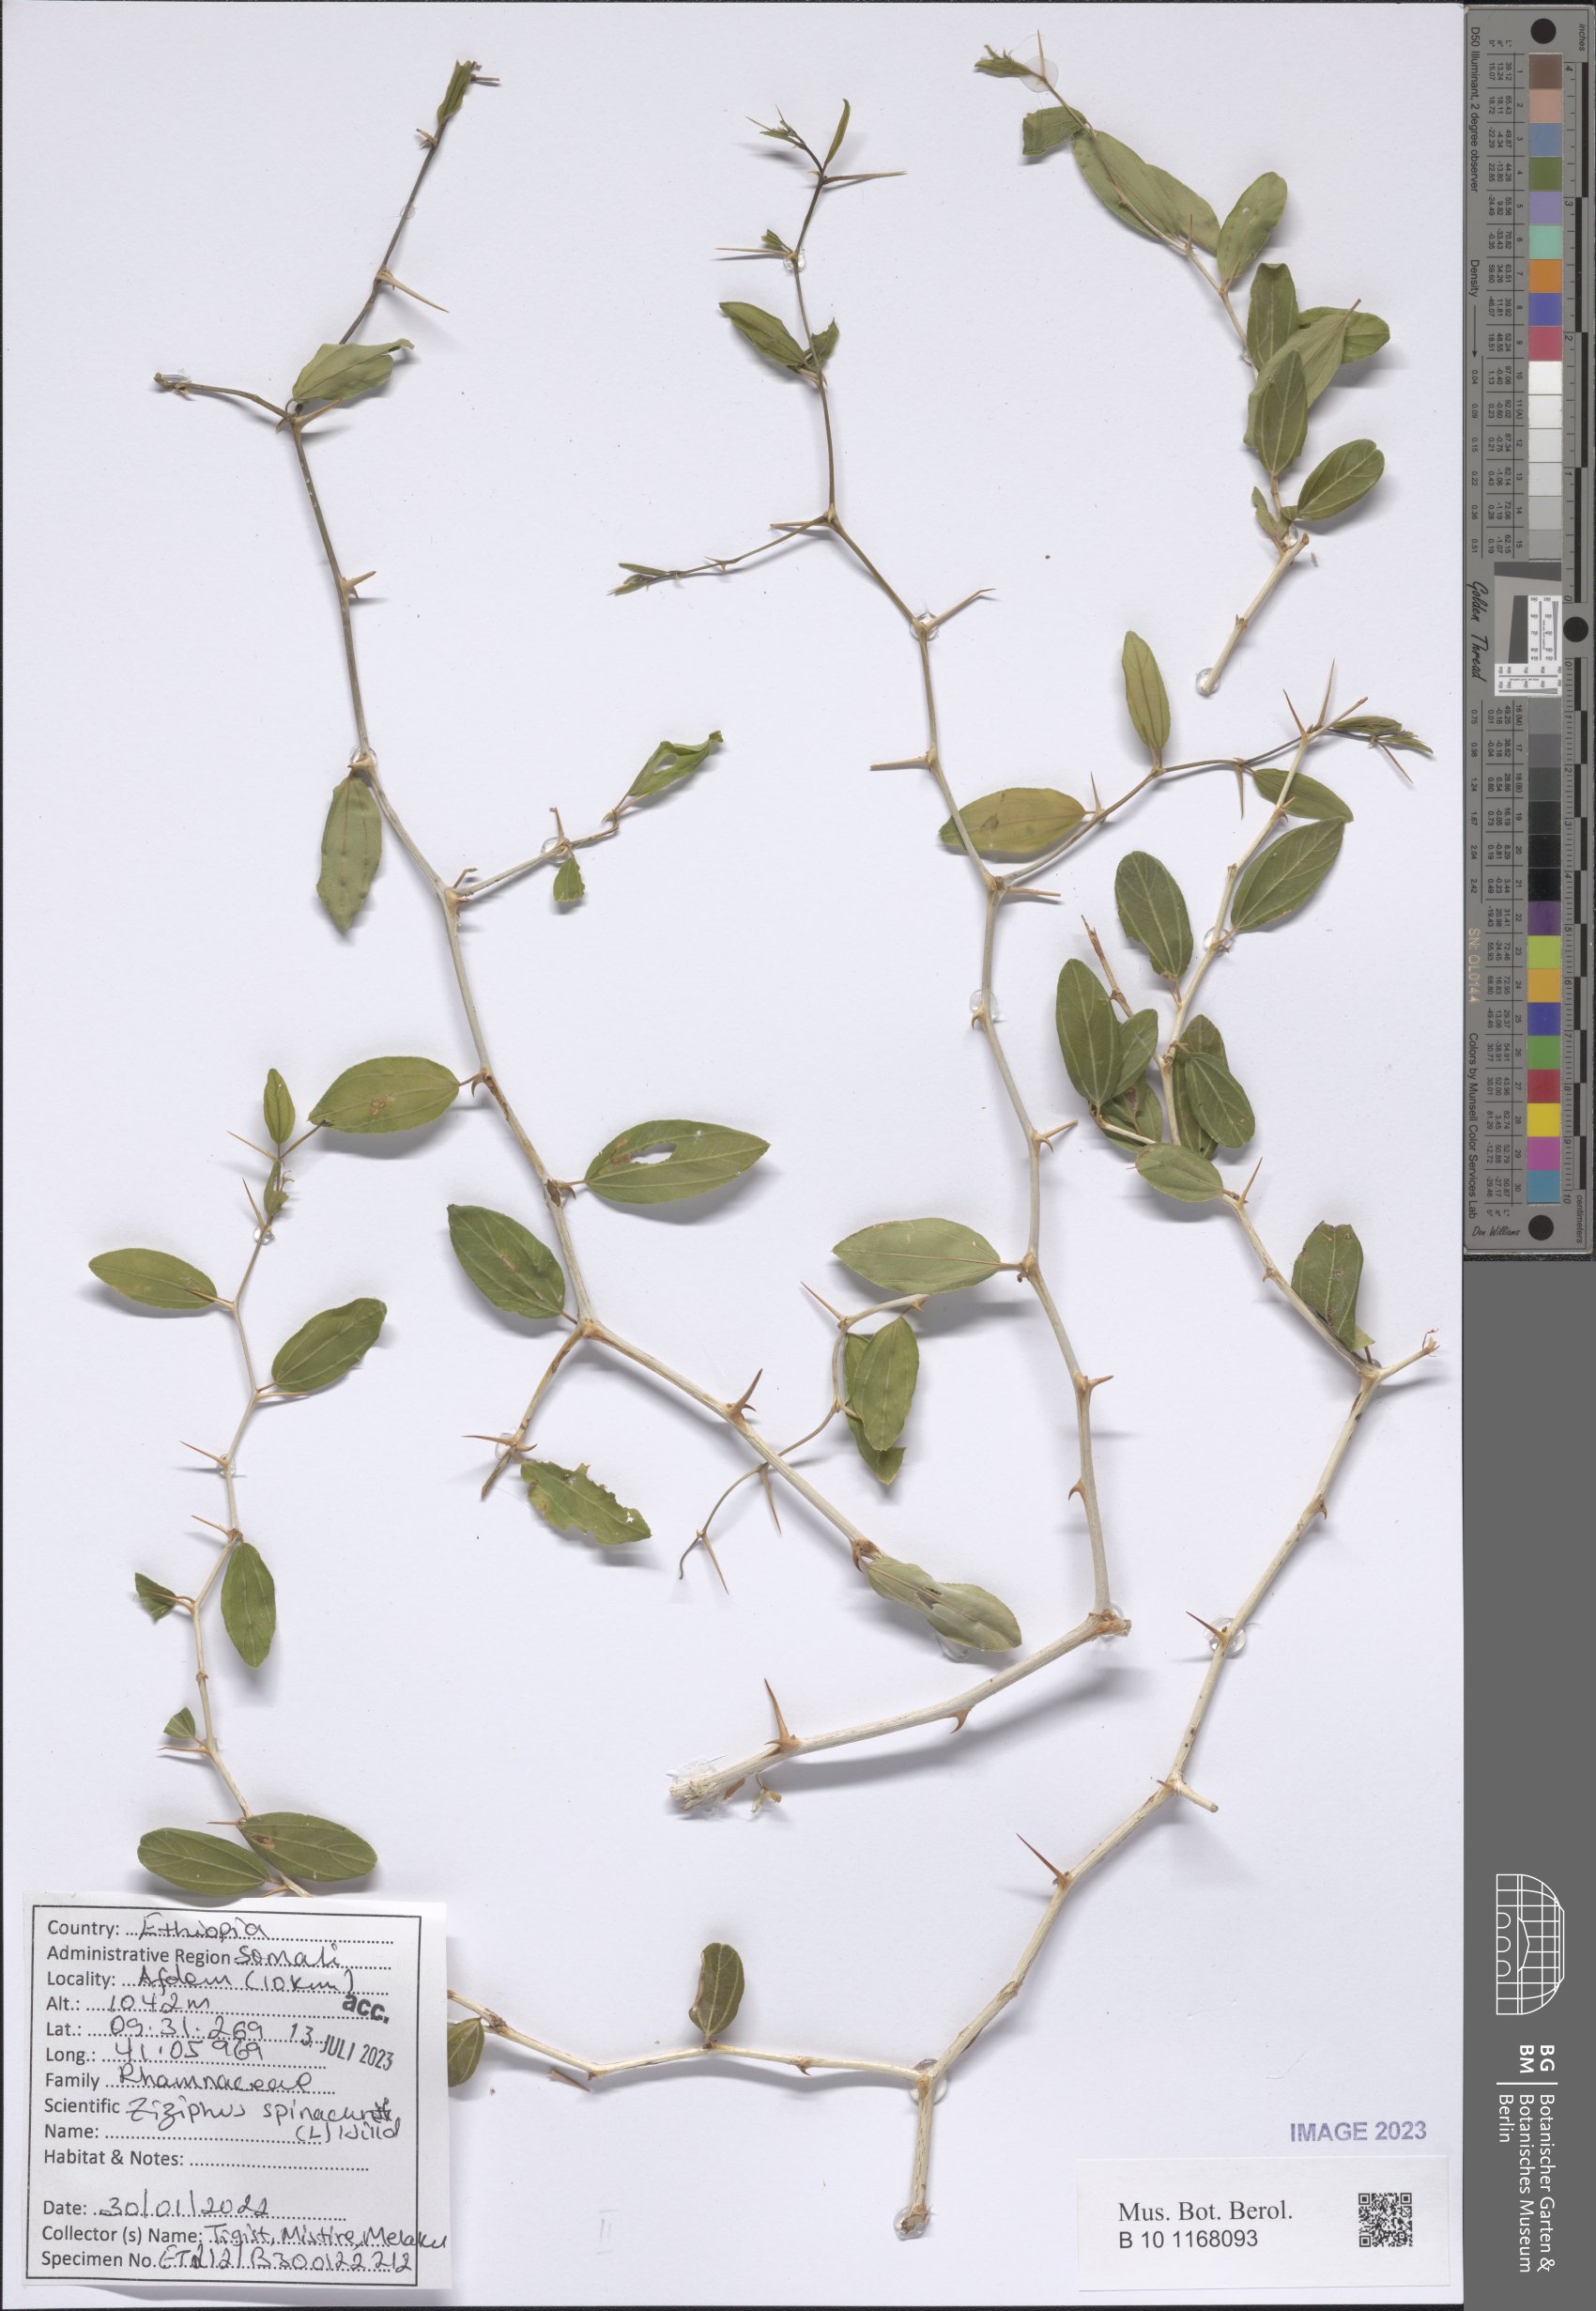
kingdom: Plantae
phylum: Tracheophyta
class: Magnoliopsida
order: Rosales
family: Rhamnaceae
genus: Ziziphus
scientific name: Ziziphus spina-christi
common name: Syrian christ-thorn
